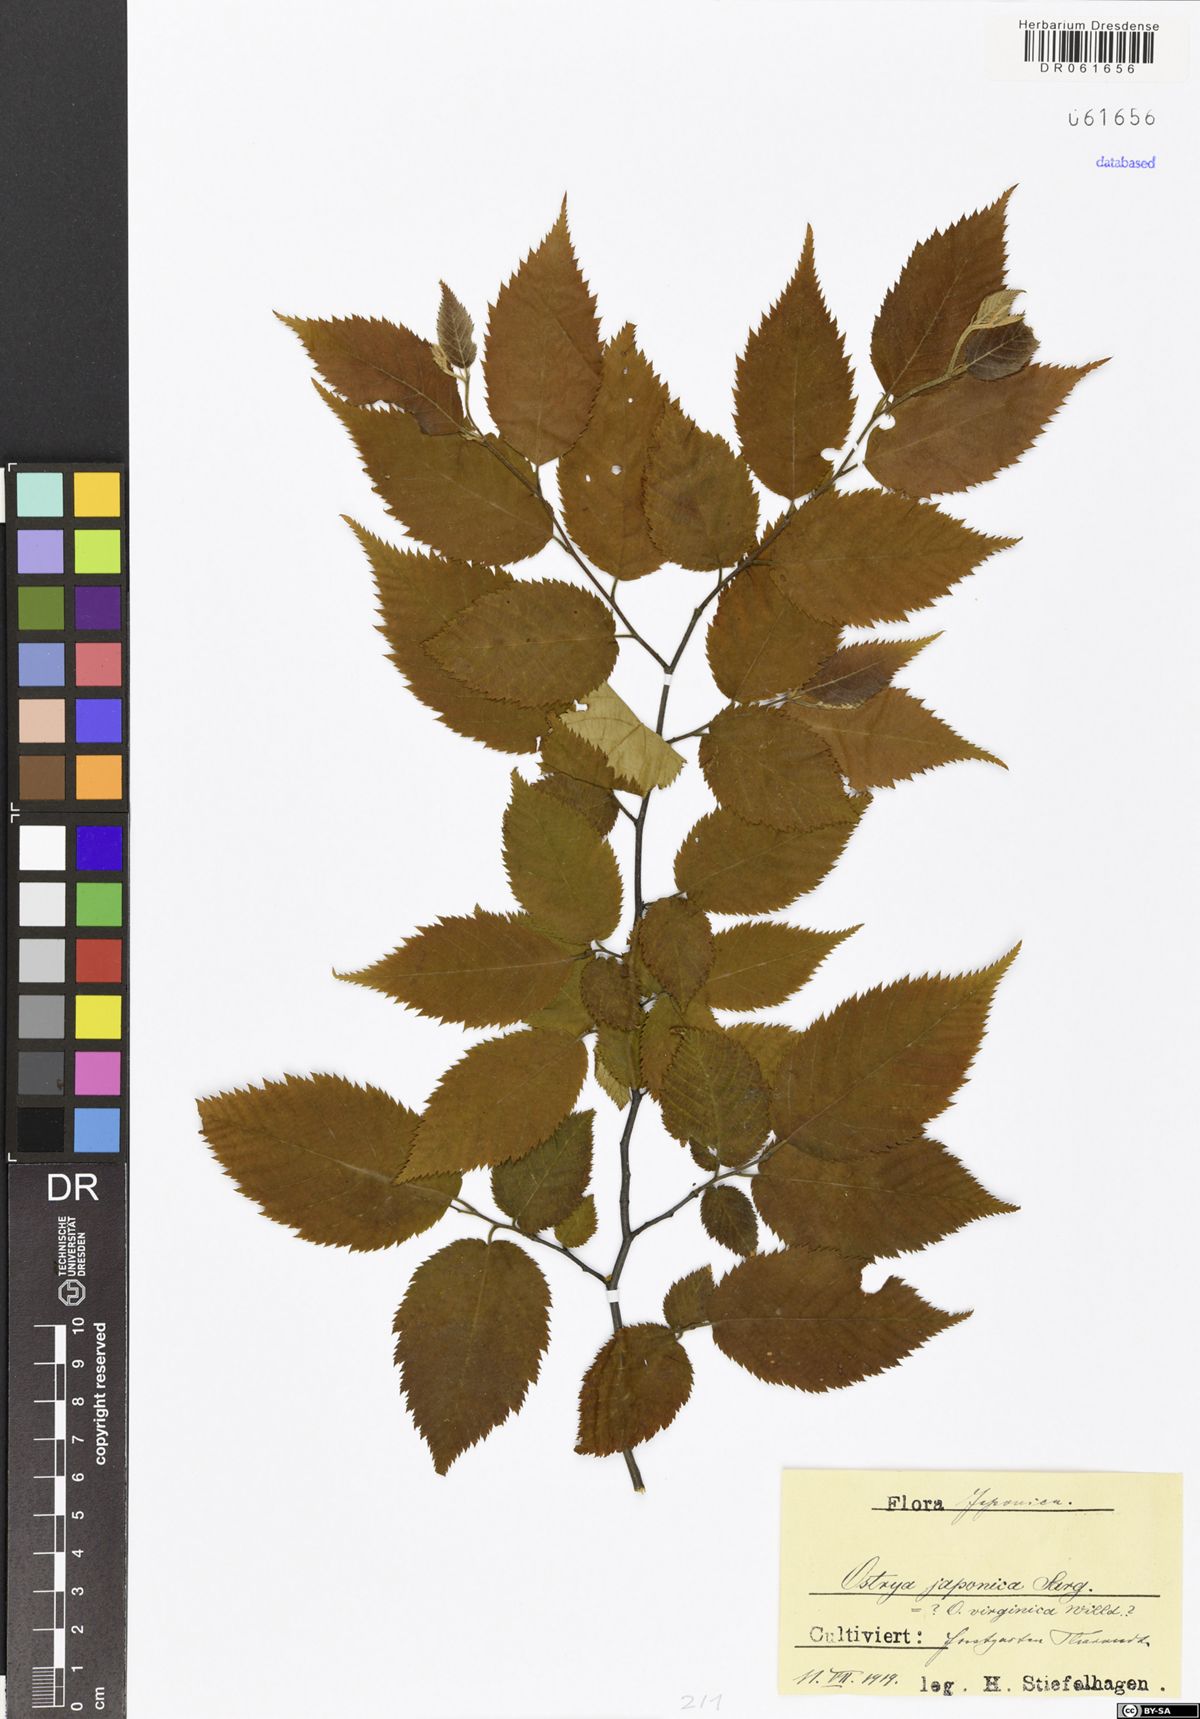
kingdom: Plantae
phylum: Tracheophyta
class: Magnoliopsida
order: Fagales
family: Betulaceae
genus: Ostrya
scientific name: Ostrya japonica
